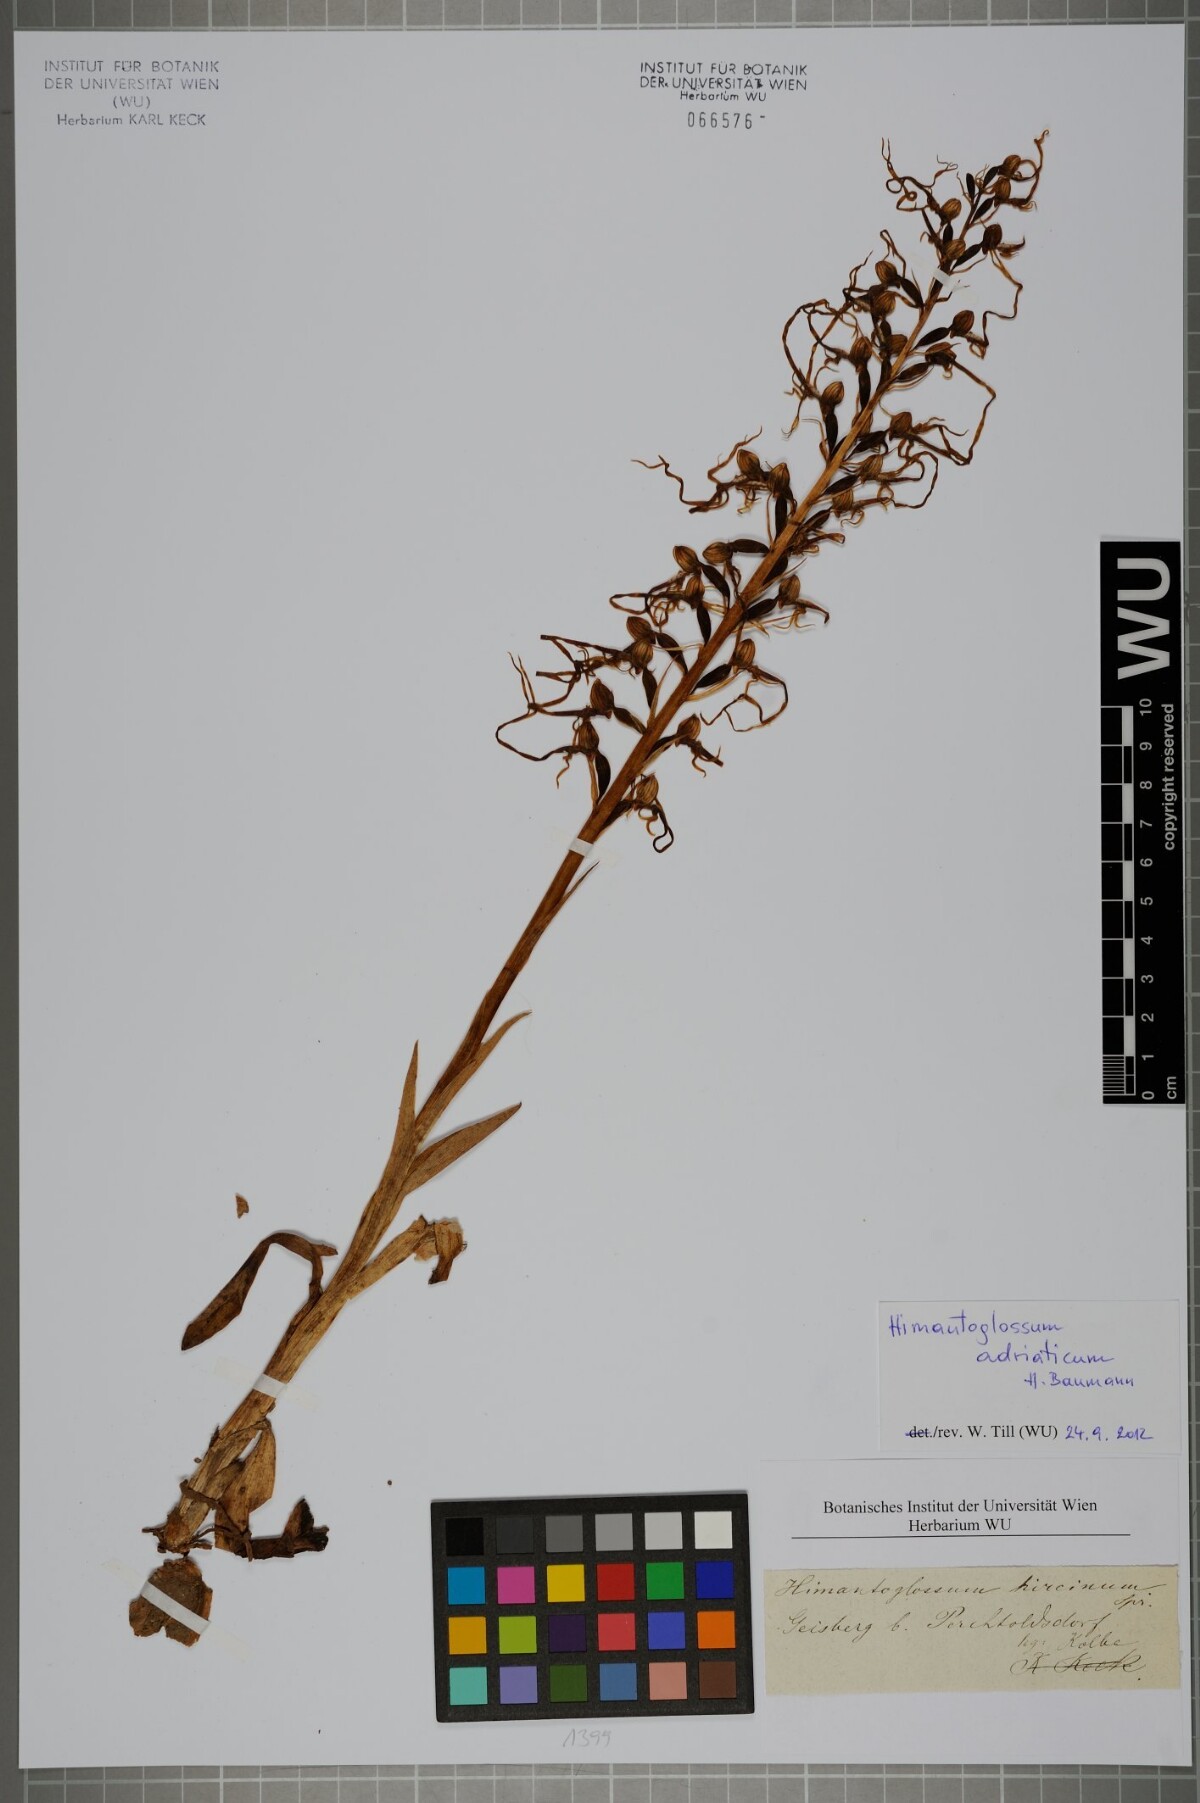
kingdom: Plantae
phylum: Tracheophyta
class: Liliopsida
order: Asparagales
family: Orchidaceae
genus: Himantoglossum
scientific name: Himantoglossum adriaticum
